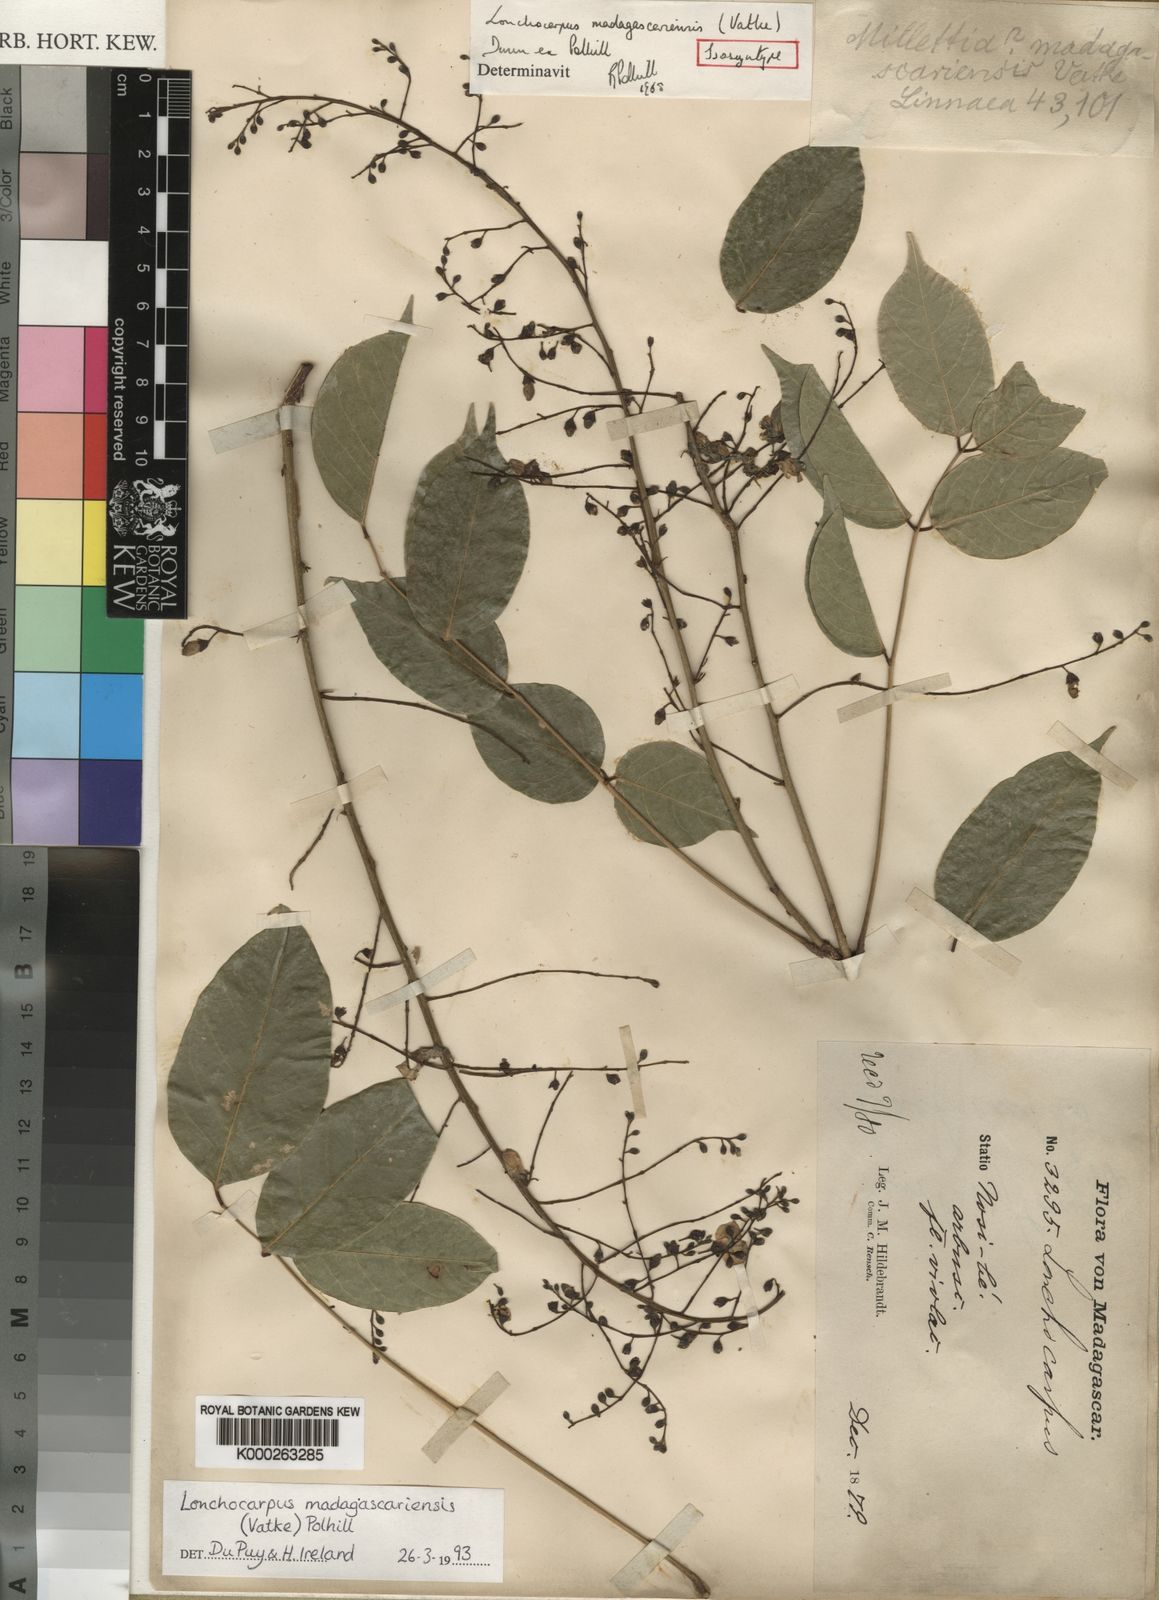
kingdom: Plantae
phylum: Tracheophyta
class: Magnoliopsida
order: Fabales
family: Fabaceae
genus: Lonchocarpus
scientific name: Lonchocarpus madagascariensis
